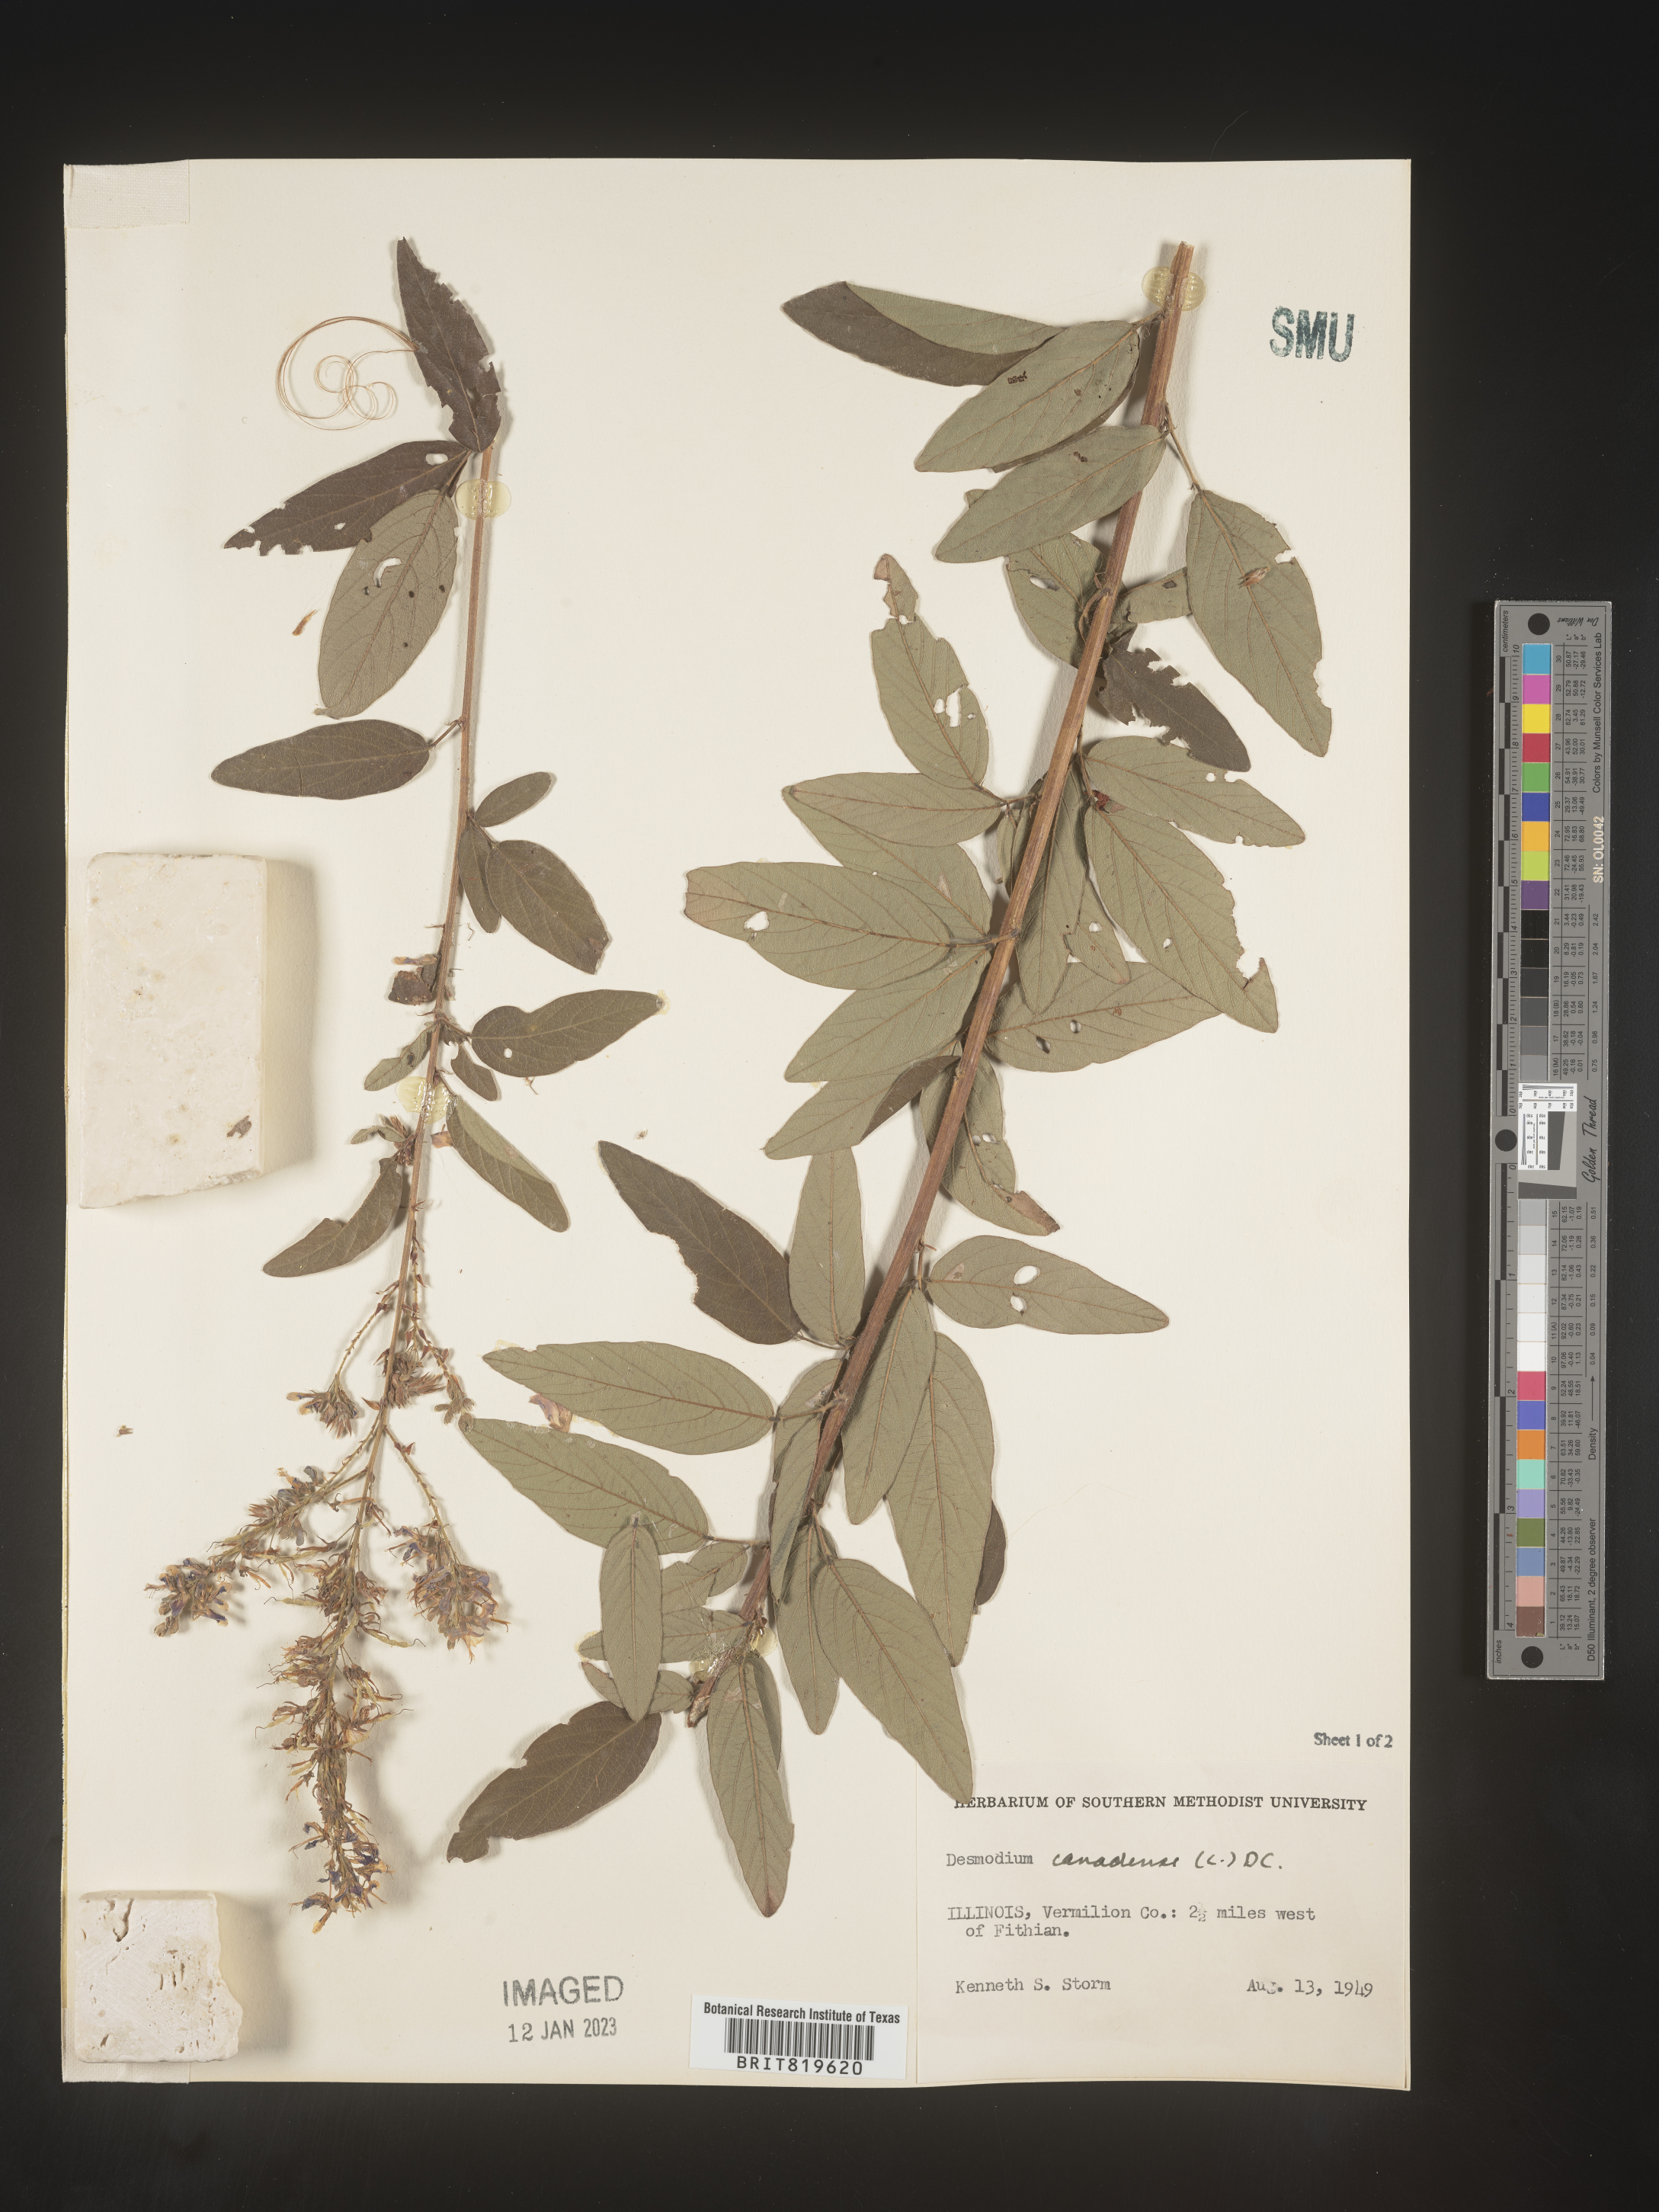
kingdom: Plantae
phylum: Tracheophyta
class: Magnoliopsida
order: Fabales
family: Fabaceae
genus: Desmodium
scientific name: Desmodium canadense
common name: Canada tick-trefoil
